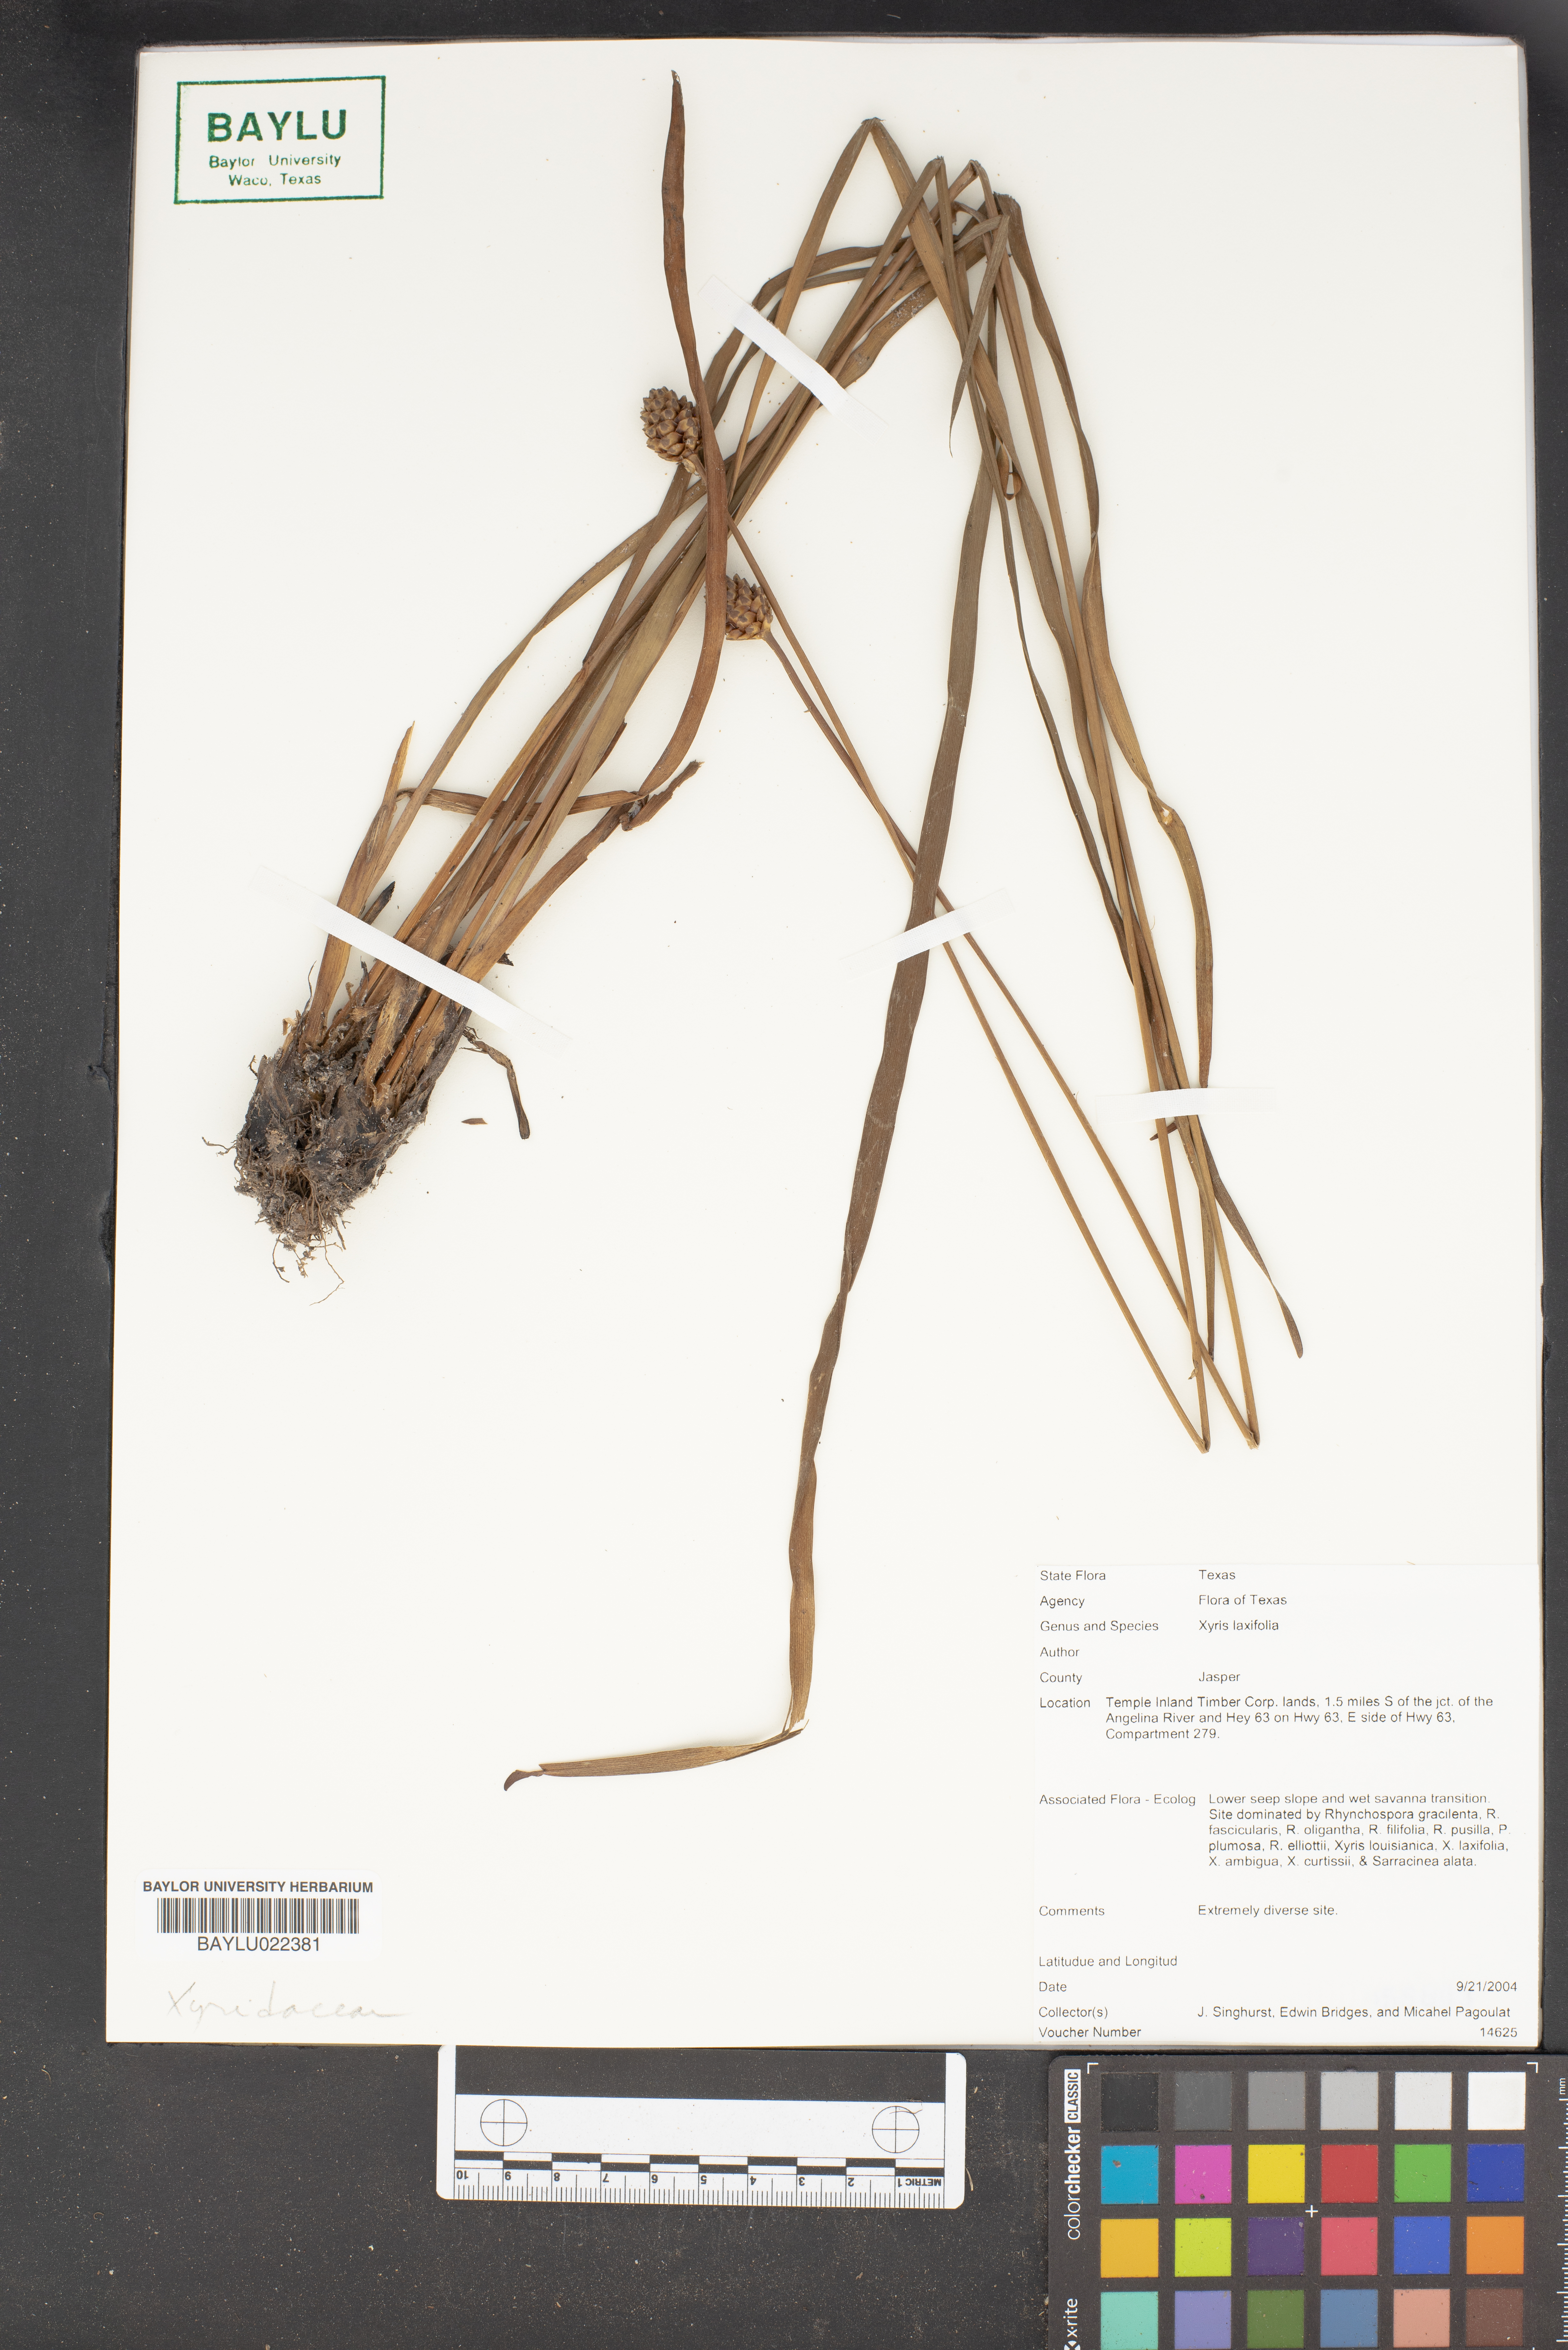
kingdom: Plantae
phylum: Tracheophyta
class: Liliopsida
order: Poales
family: Xyridaceae
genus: Xyris
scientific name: Xyris laxiflora
